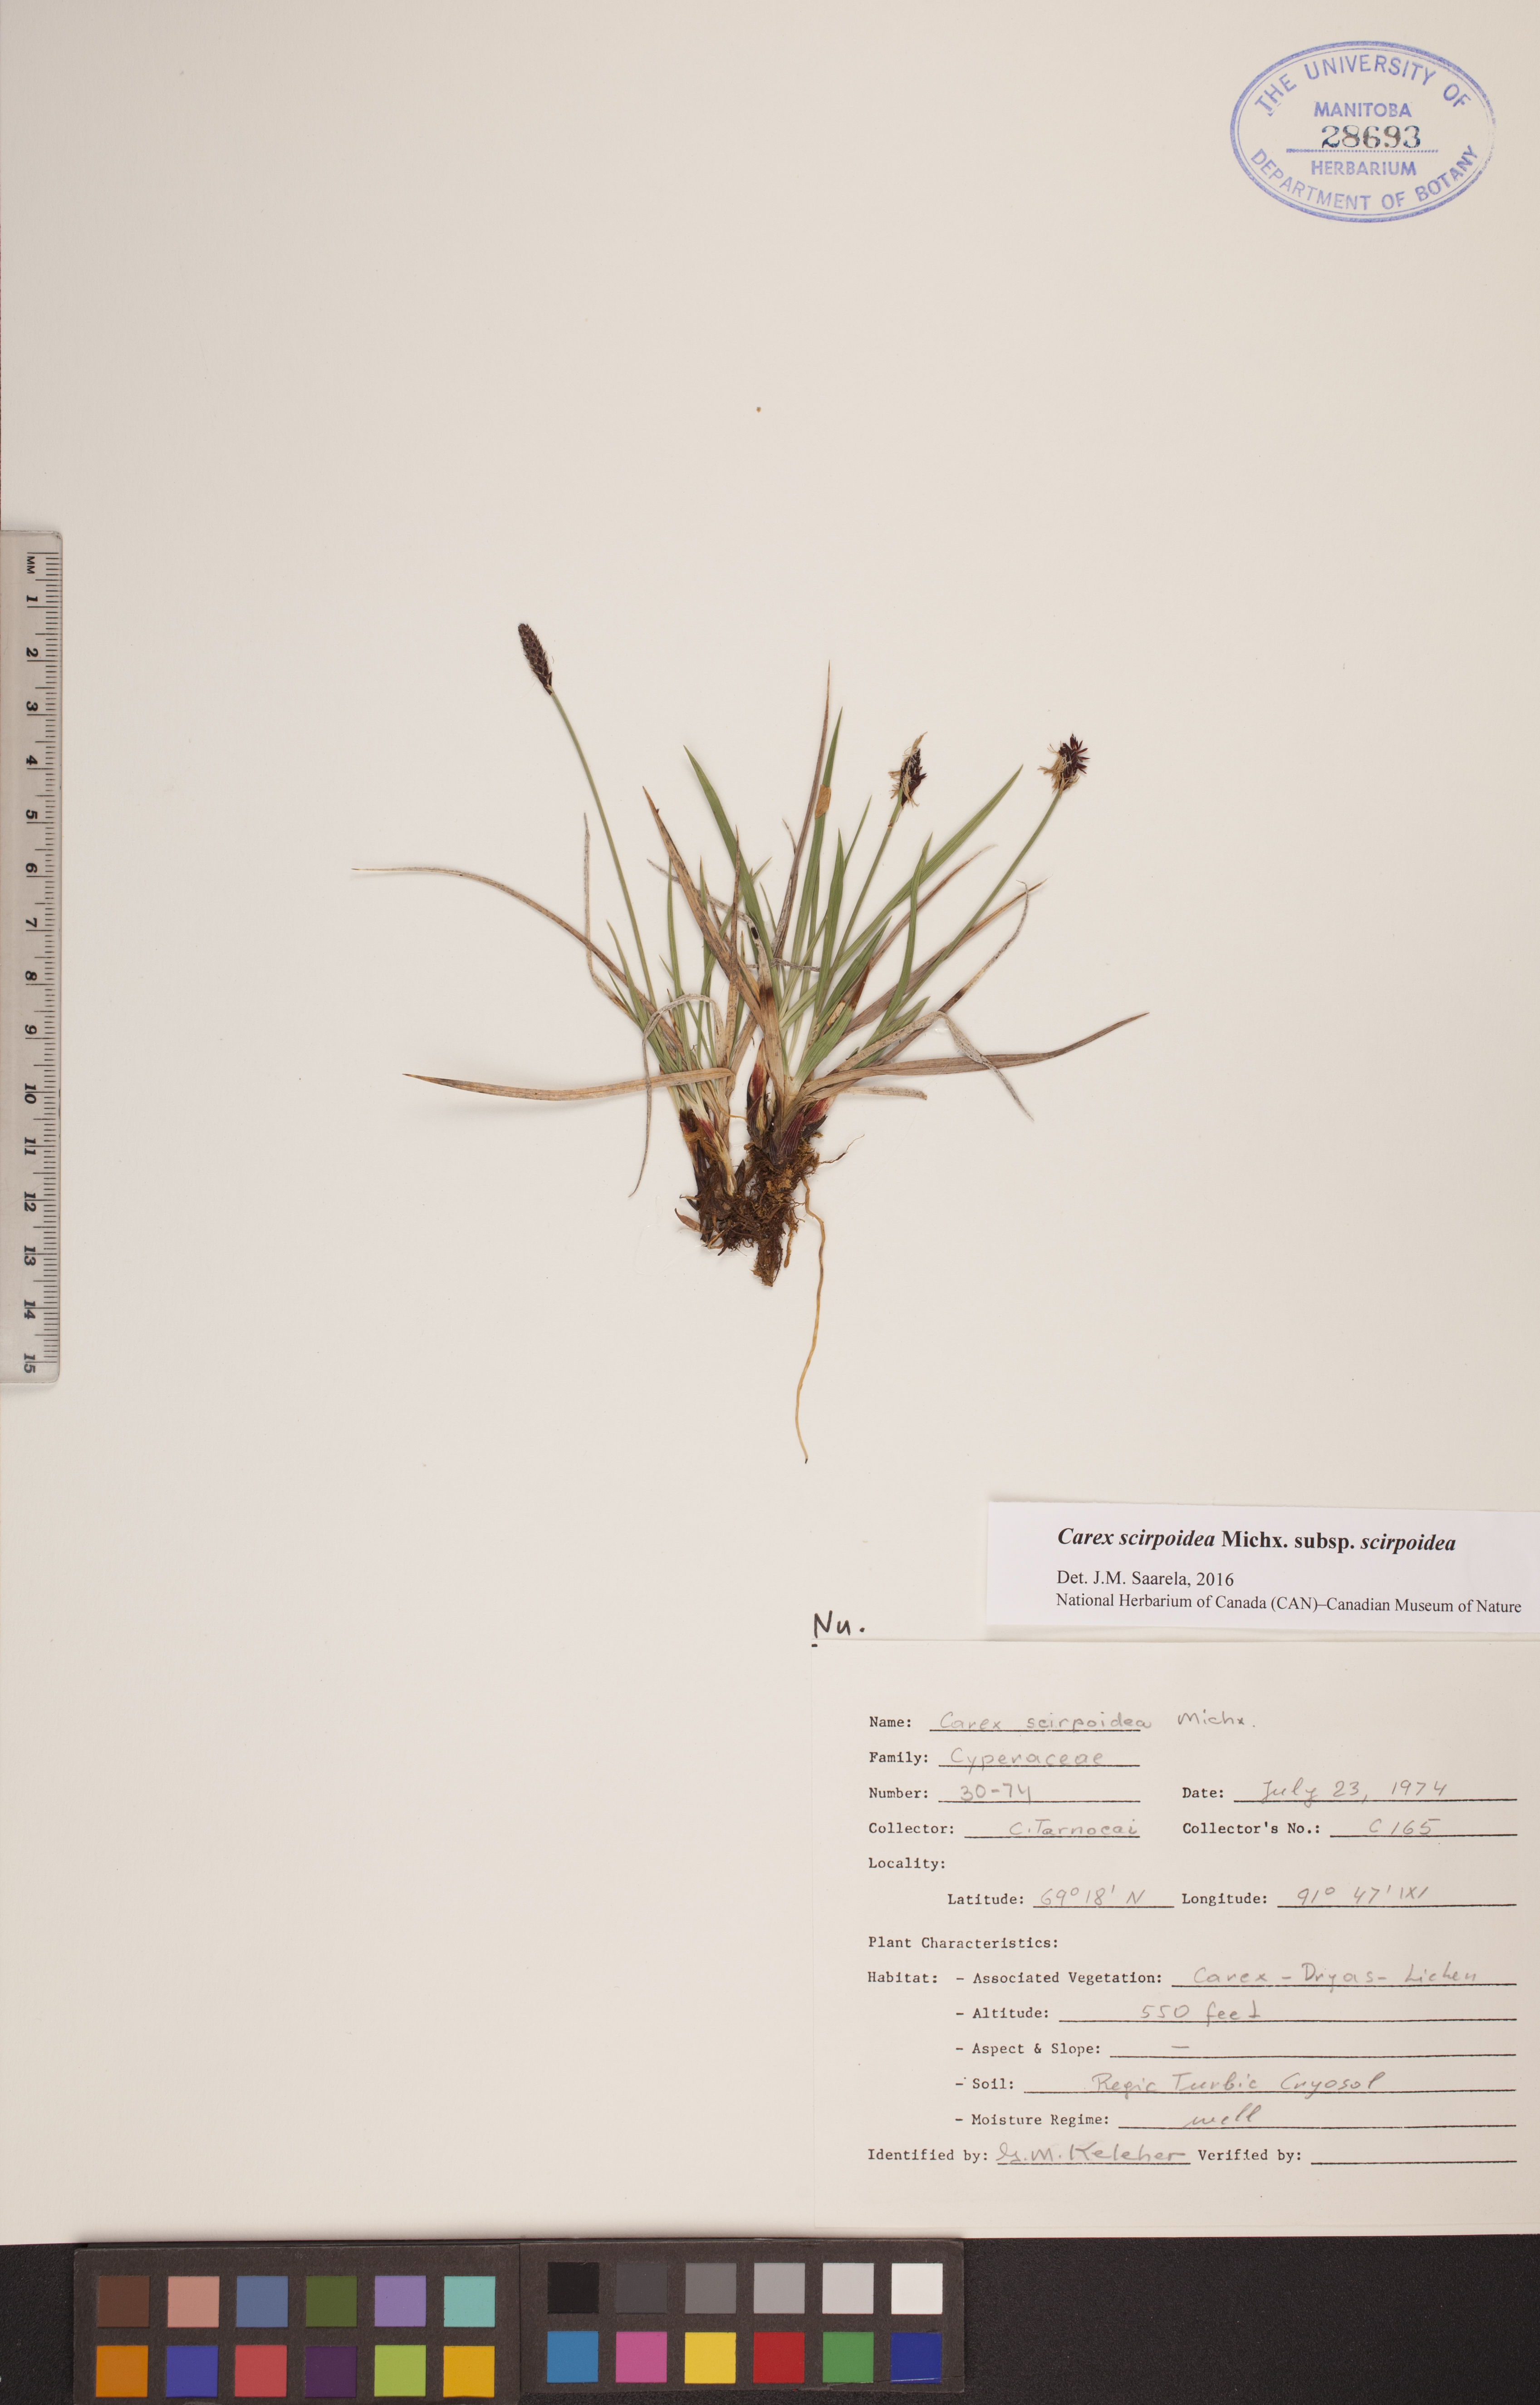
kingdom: Plantae
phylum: Tracheophyta
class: Liliopsida
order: Poales
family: Cyperaceae
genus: Carex
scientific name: Carex scirpoidea
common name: Canada single-spike sedge
